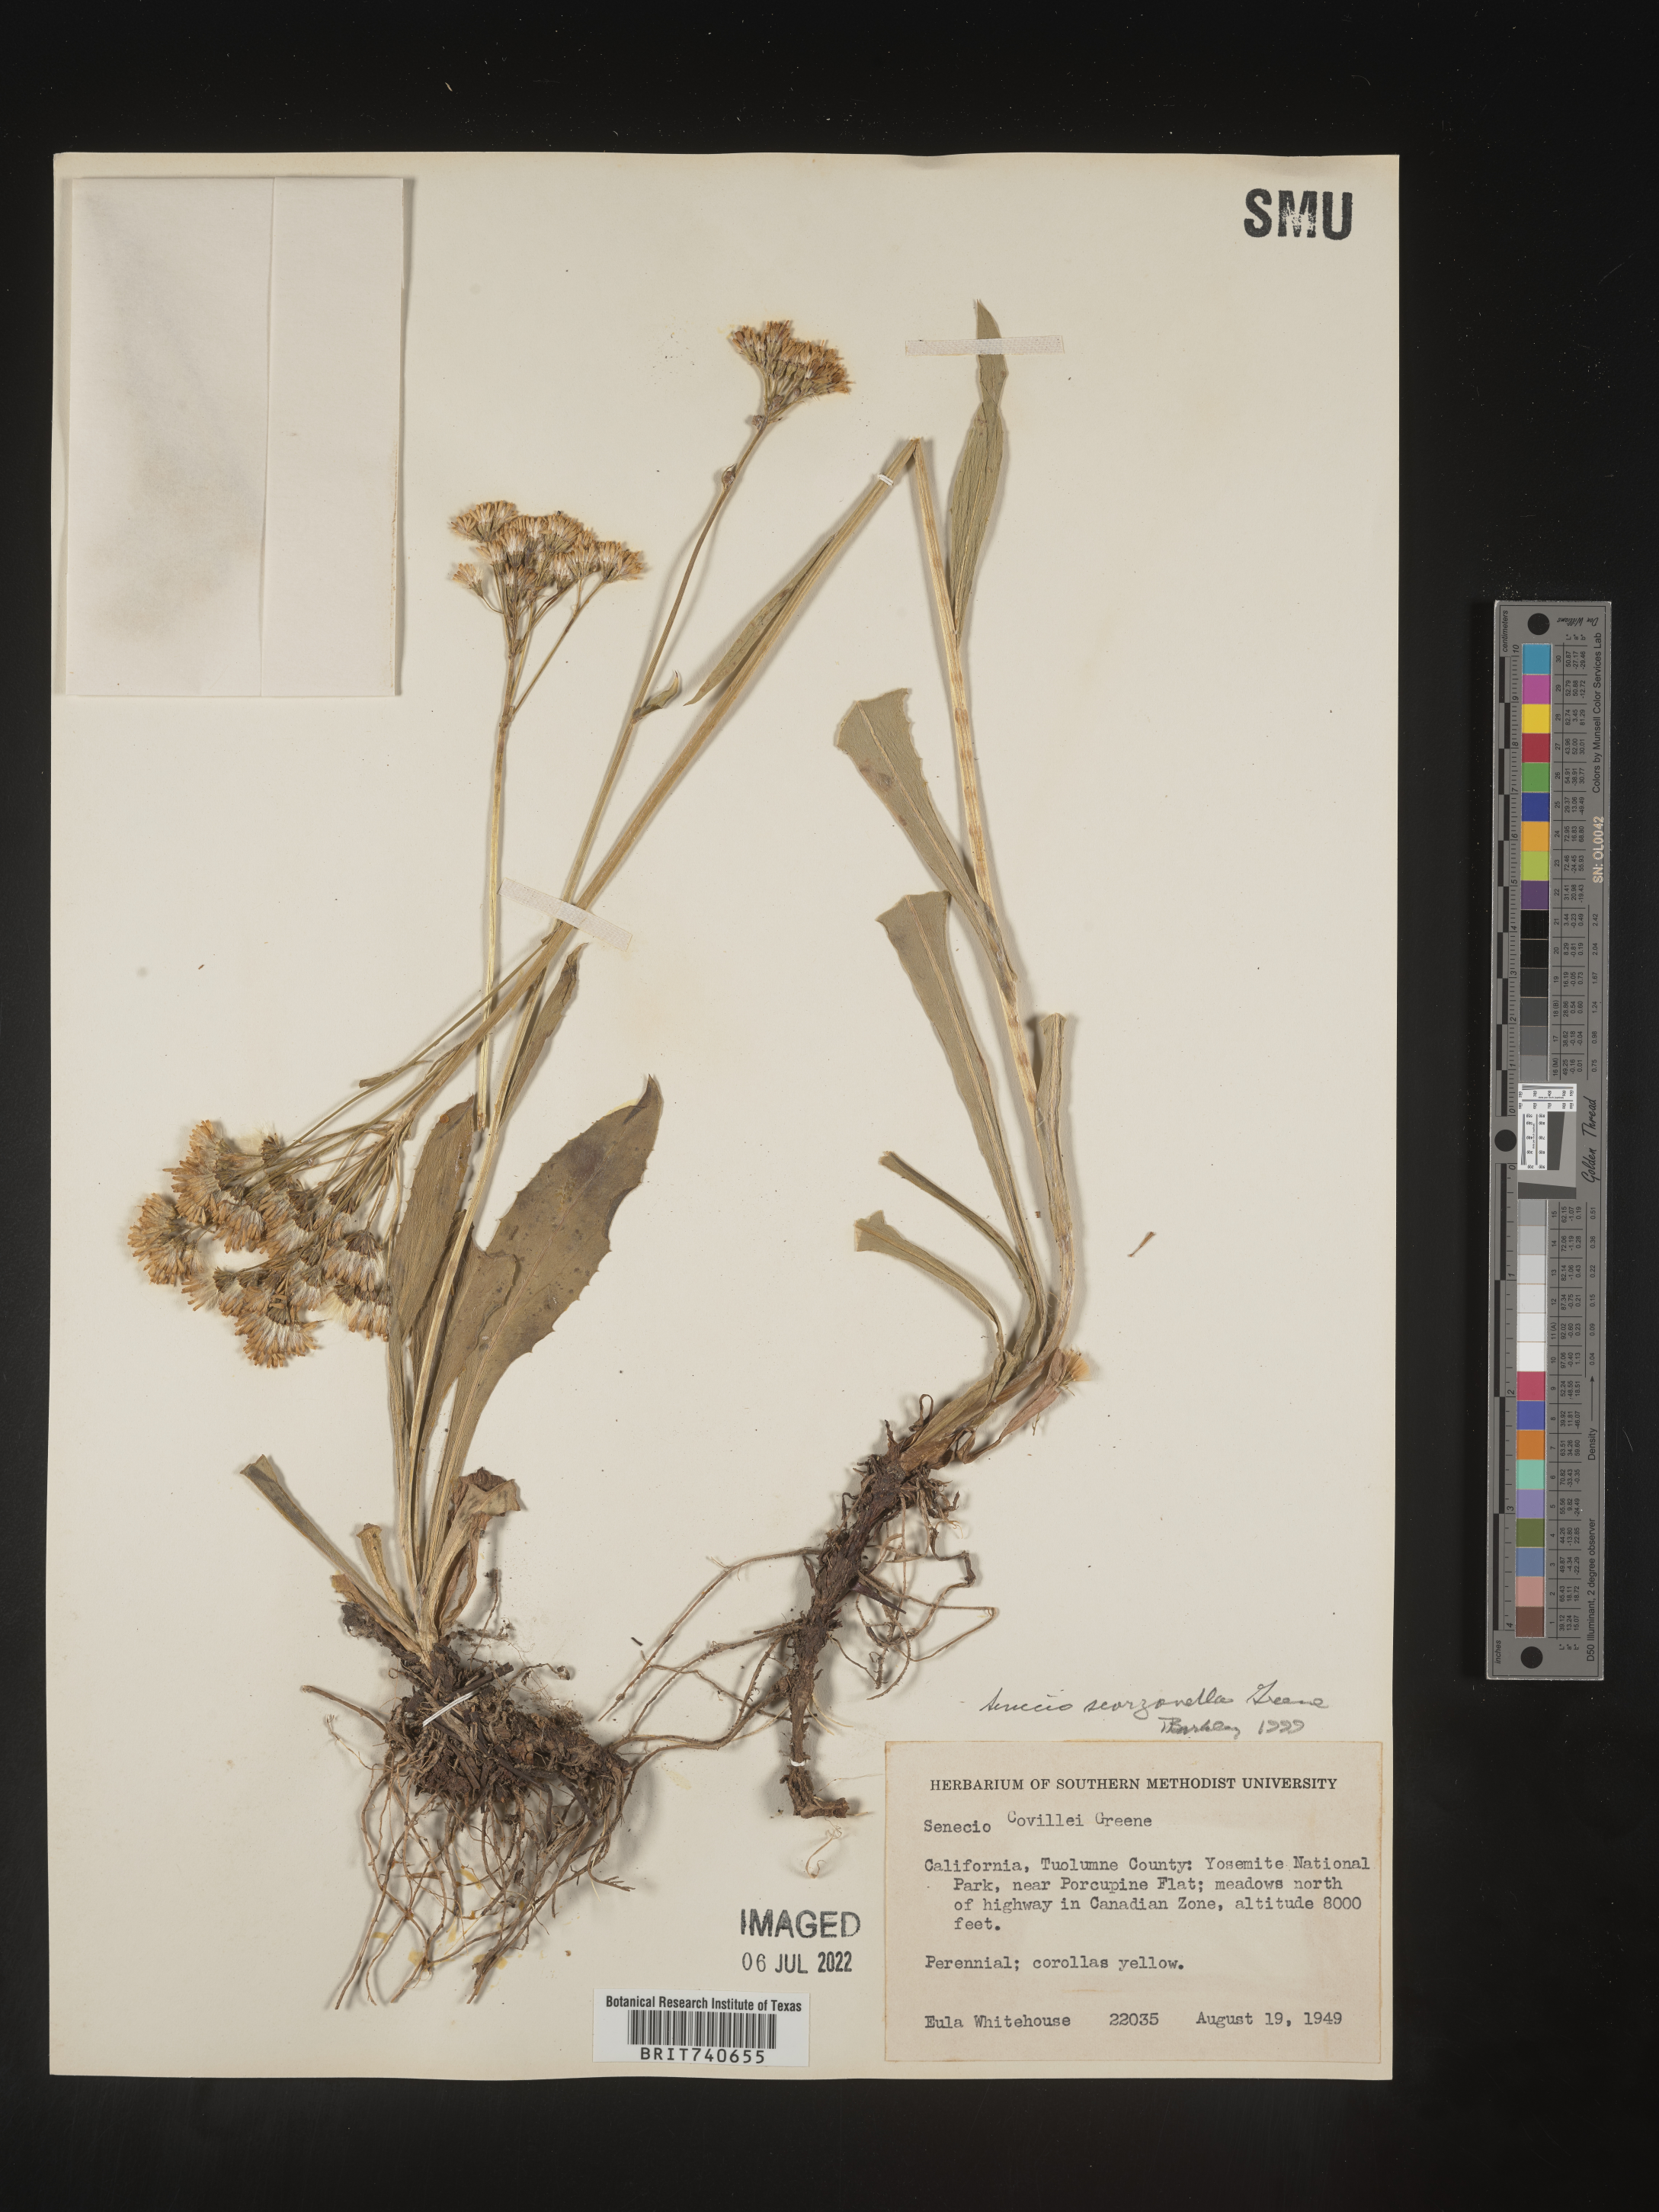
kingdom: Plantae
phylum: Tracheophyta
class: Magnoliopsida
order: Asterales
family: Asteraceae
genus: Senecio
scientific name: Senecio scorzonella
